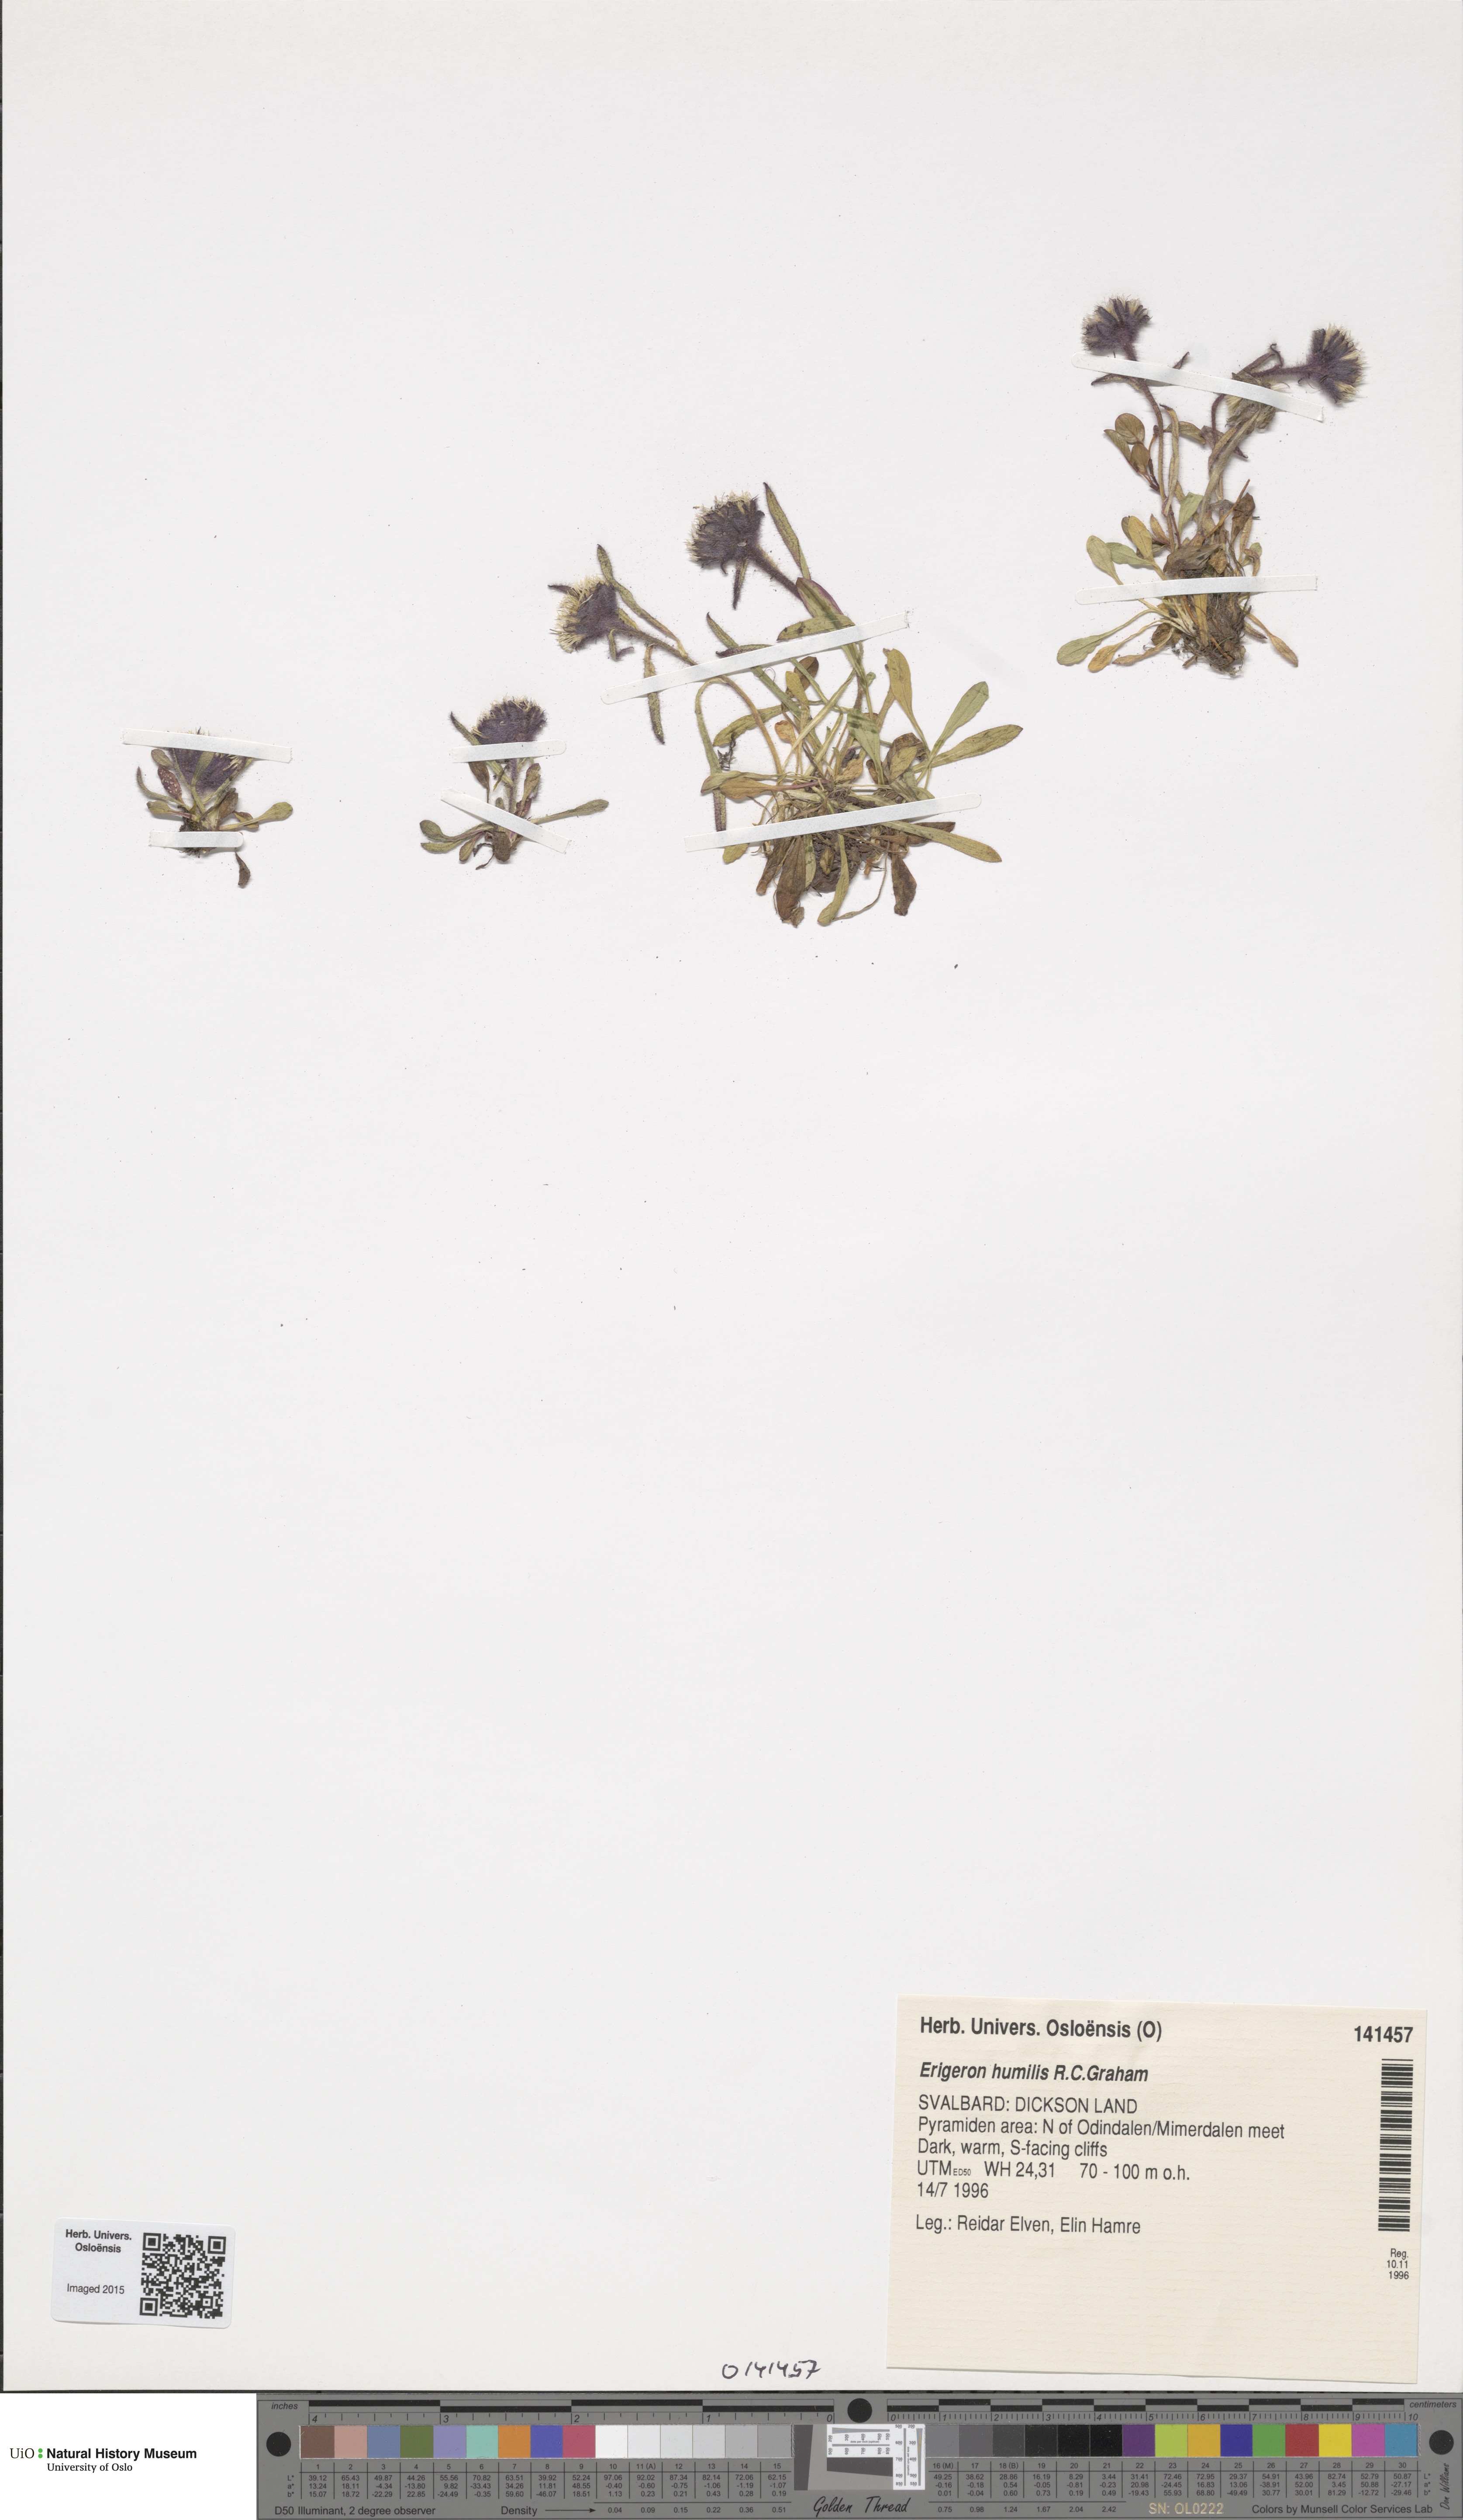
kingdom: Plantae
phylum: Tracheophyta
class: Magnoliopsida
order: Asterales
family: Asteraceae
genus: Erigeron
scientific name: Erigeron humilis
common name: Arctic-alpine fleabane
